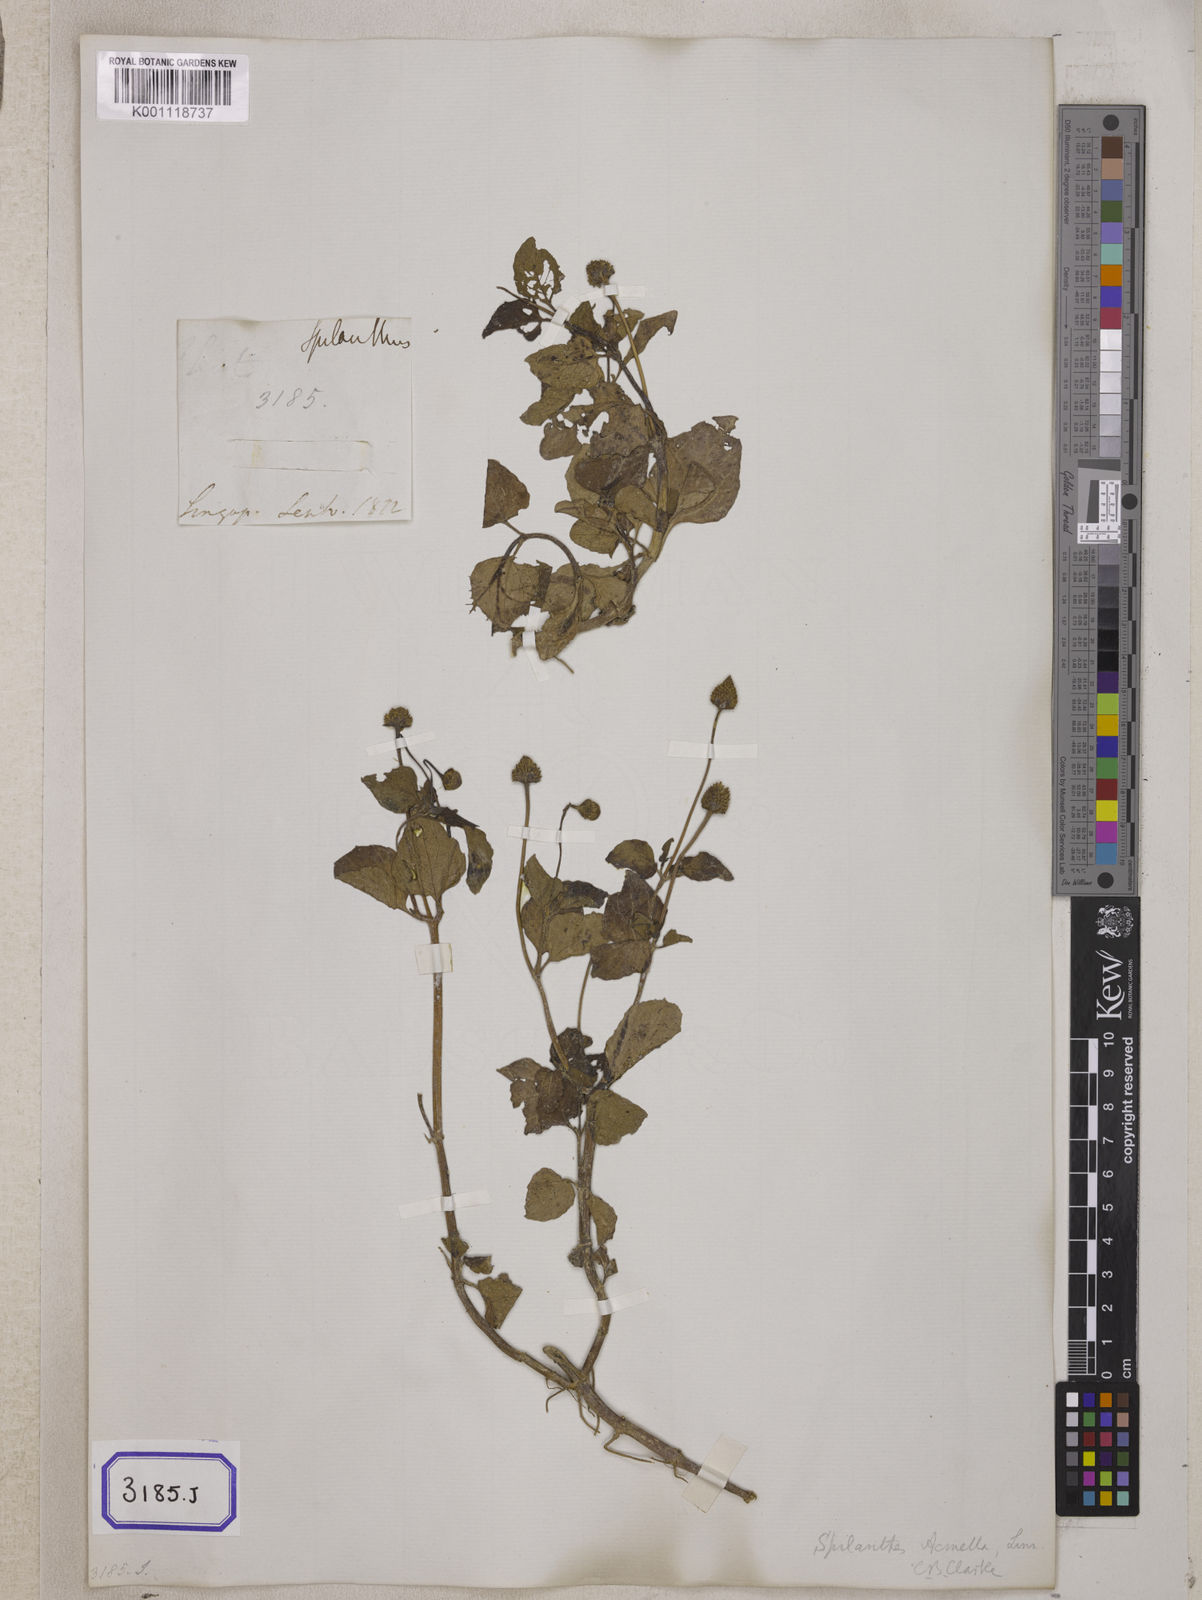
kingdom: Plantae
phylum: Tracheophyta
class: Magnoliopsida
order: Asterales
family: Asteraceae
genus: Blainvillea
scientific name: Blainvillea acmella
